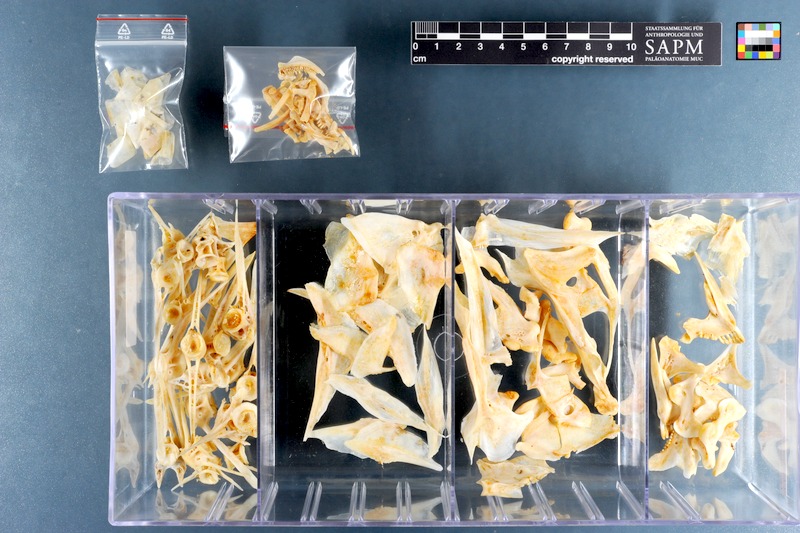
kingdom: Animalia
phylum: Chordata
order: Perciformes
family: Sparidae
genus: Diplodus
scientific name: Diplodus hottentotus
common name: Zebra
